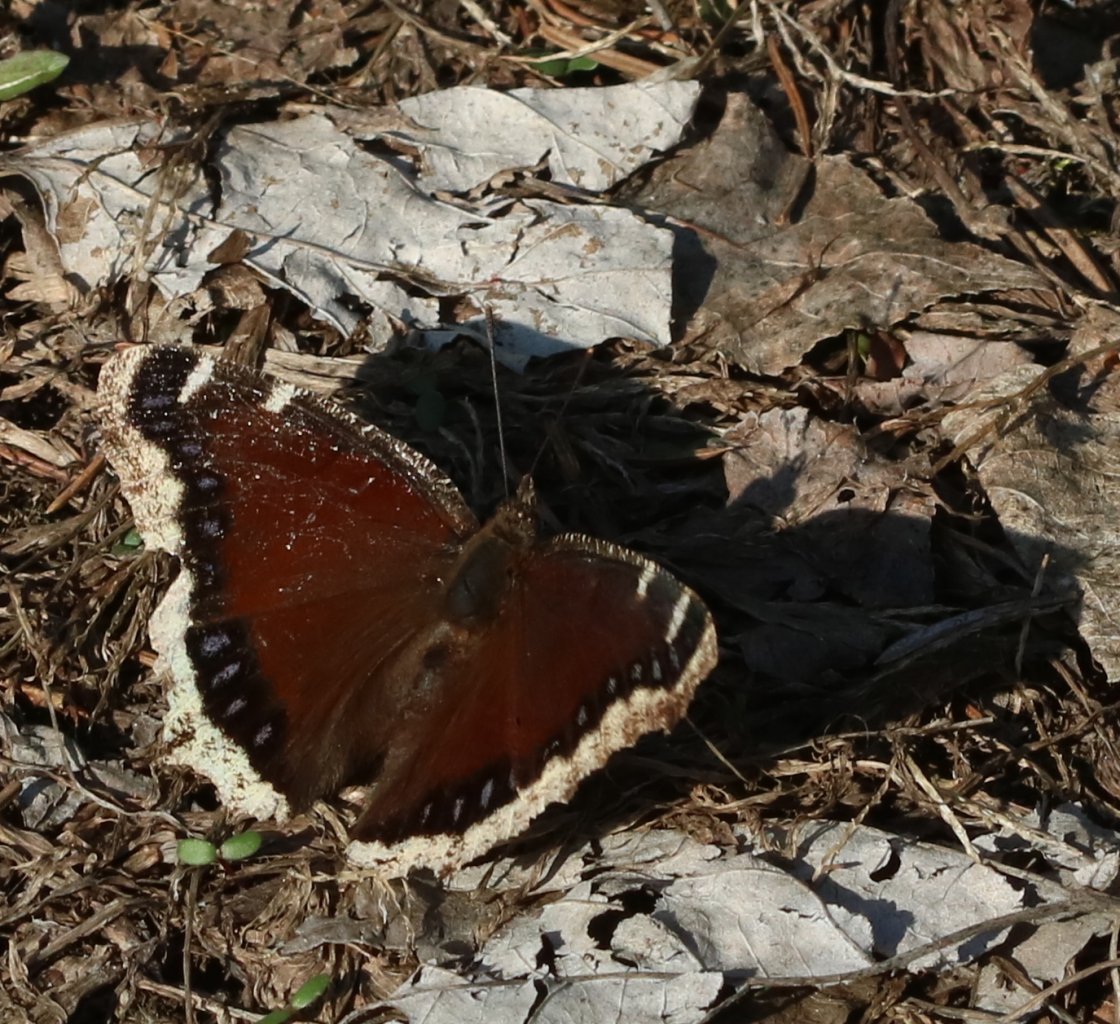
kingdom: Animalia
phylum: Arthropoda
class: Insecta
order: Lepidoptera
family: Nymphalidae
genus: Nymphalis
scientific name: Nymphalis antiopa
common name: Mourning Cloak
